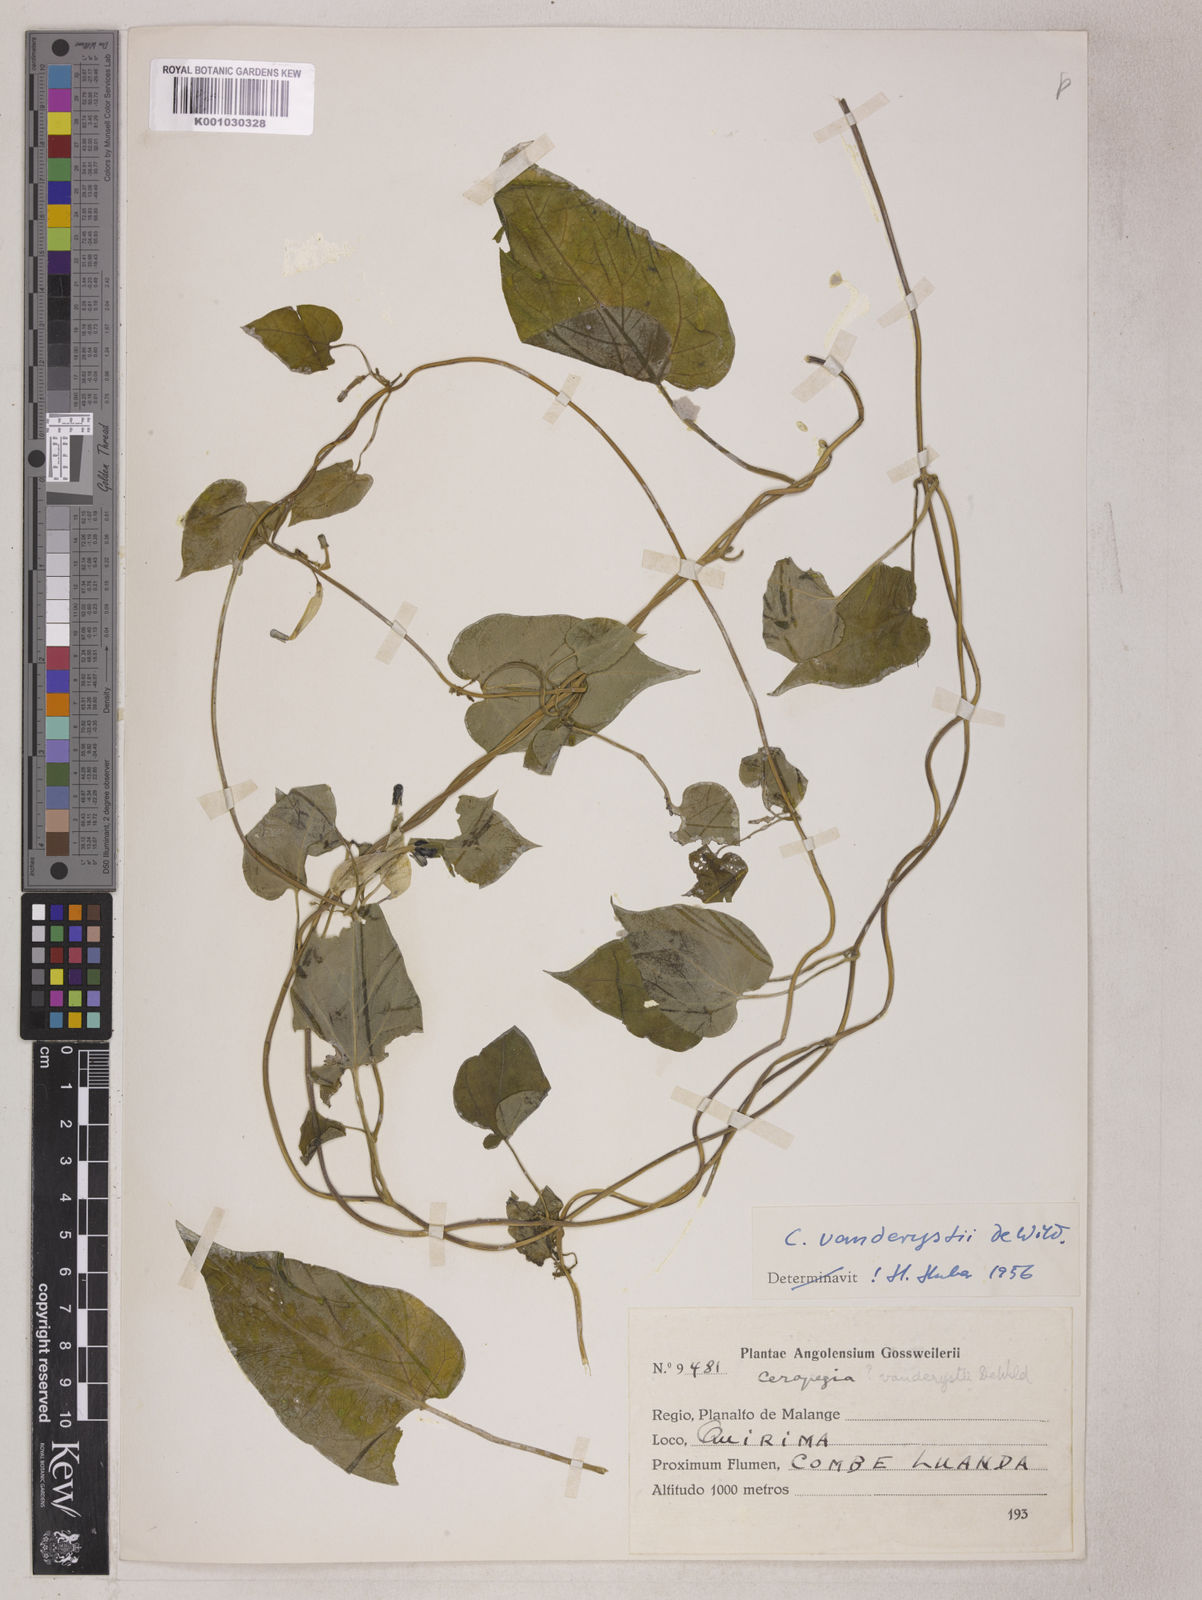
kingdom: Plantae
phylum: Tracheophyta
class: Magnoliopsida
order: Gentianales
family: Apocynaceae
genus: Ceropegia
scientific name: Ceropegia vanderystii
